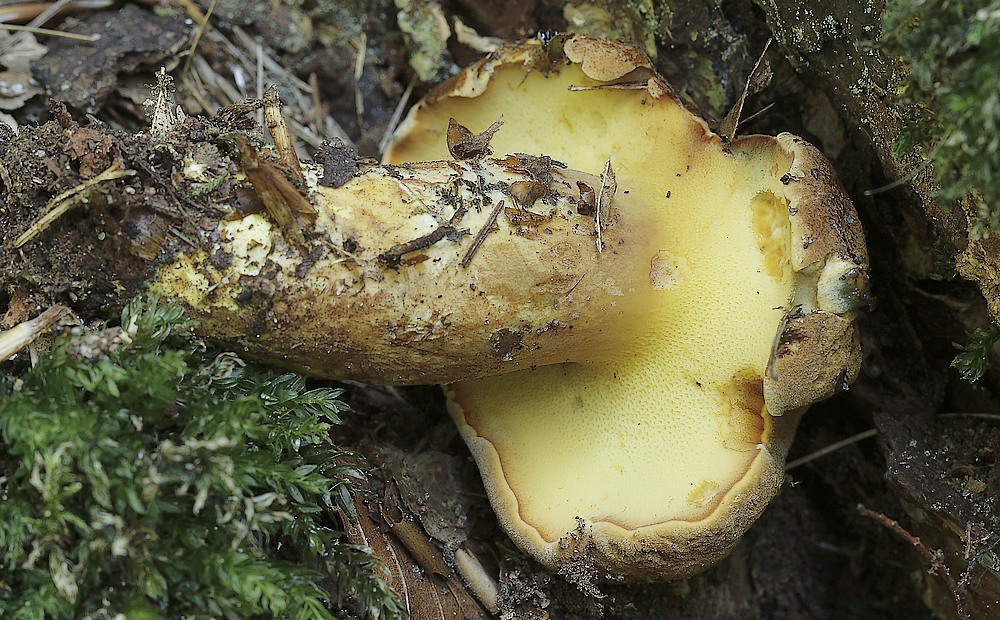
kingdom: Fungi
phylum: Basidiomycota
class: Agaricomycetes
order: Boletales
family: Boletaceae
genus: Buchwaldoboletus
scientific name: Buchwaldoboletus lignicola
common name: stødrørhat
